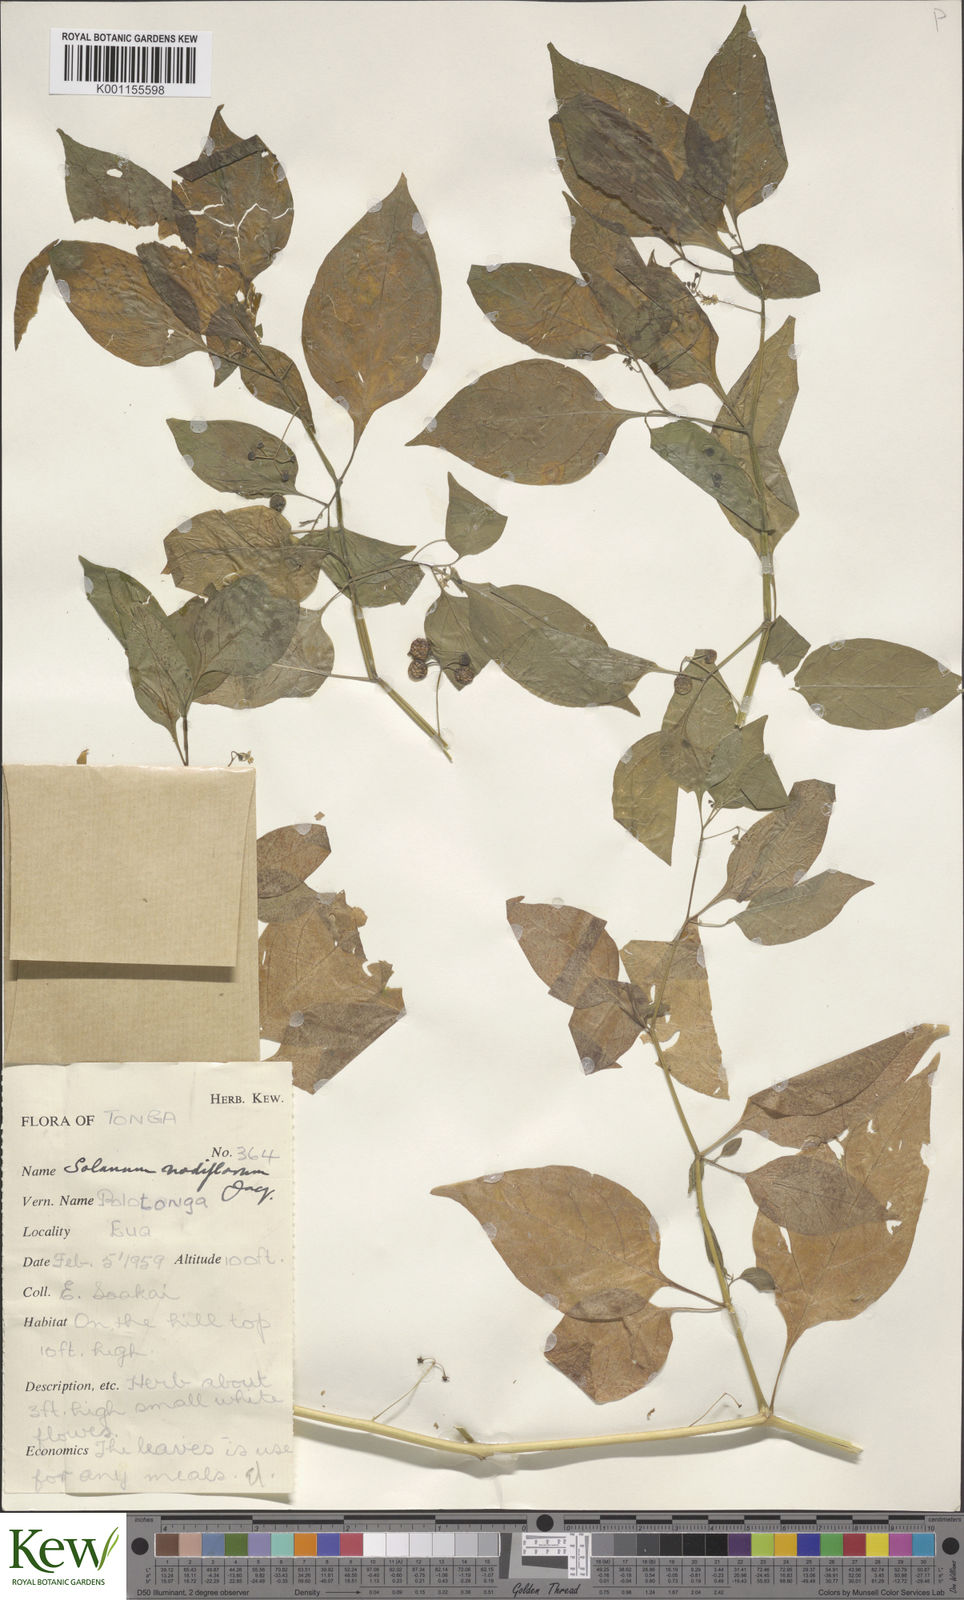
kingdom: Plantae
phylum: Tracheophyta
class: Magnoliopsida
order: Solanales
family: Solanaceae
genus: Solanum
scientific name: Solanum americanum
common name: American black nightshade
